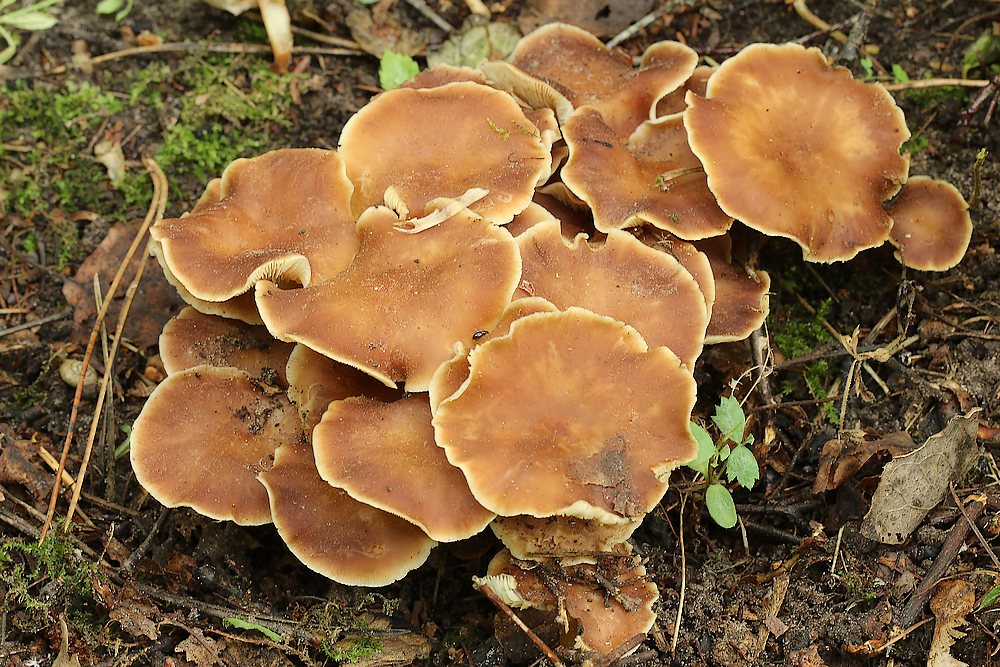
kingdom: Fungi
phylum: Basidiomycota
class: Agaricomycetes
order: Agaricales
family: Omphalotaceae
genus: Gymnopus
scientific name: Gymnopus ocior
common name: mørk fladhat
